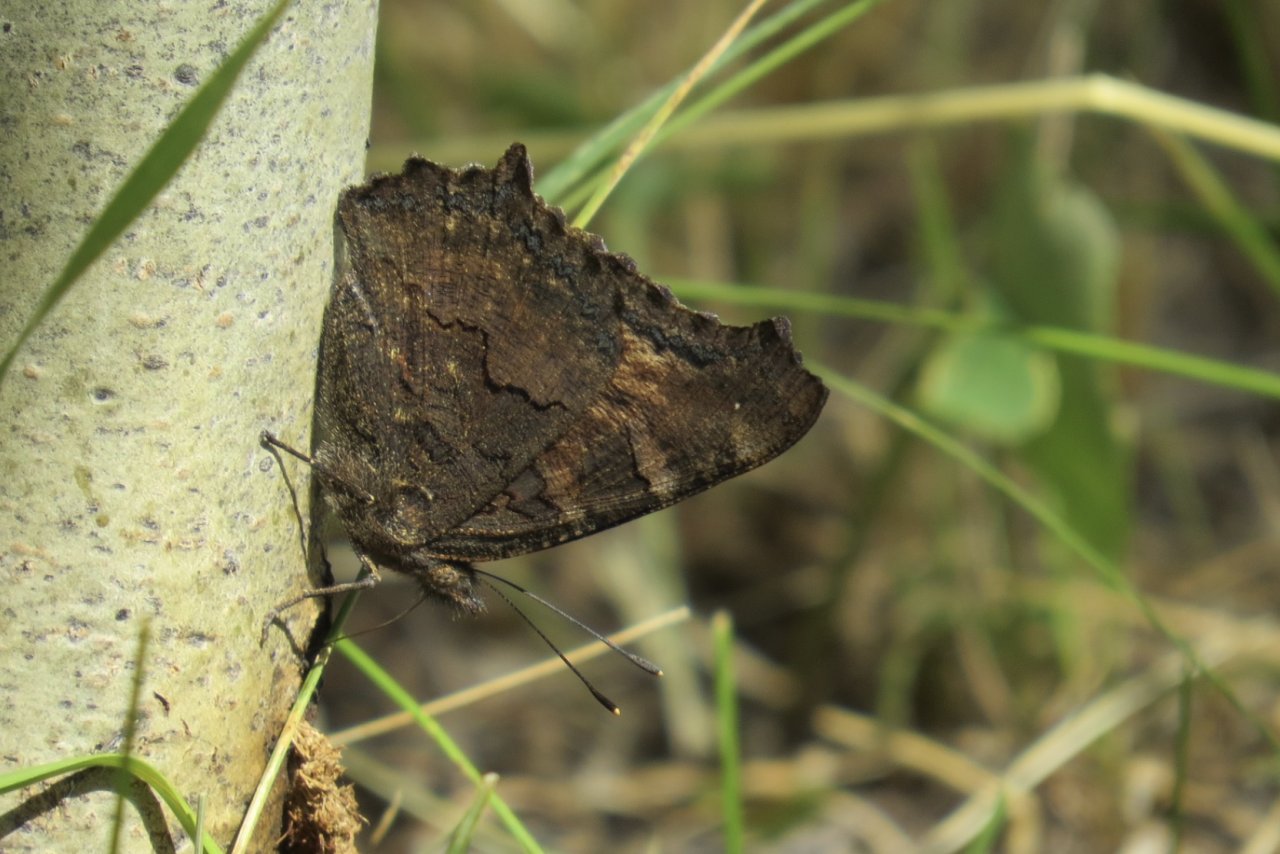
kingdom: Animalia
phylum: Arthropoda
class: Insecta
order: Lepidoptera
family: Nymphalidae
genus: Nymphalis
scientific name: Nymphalis californica
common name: California Tortoiseshell
